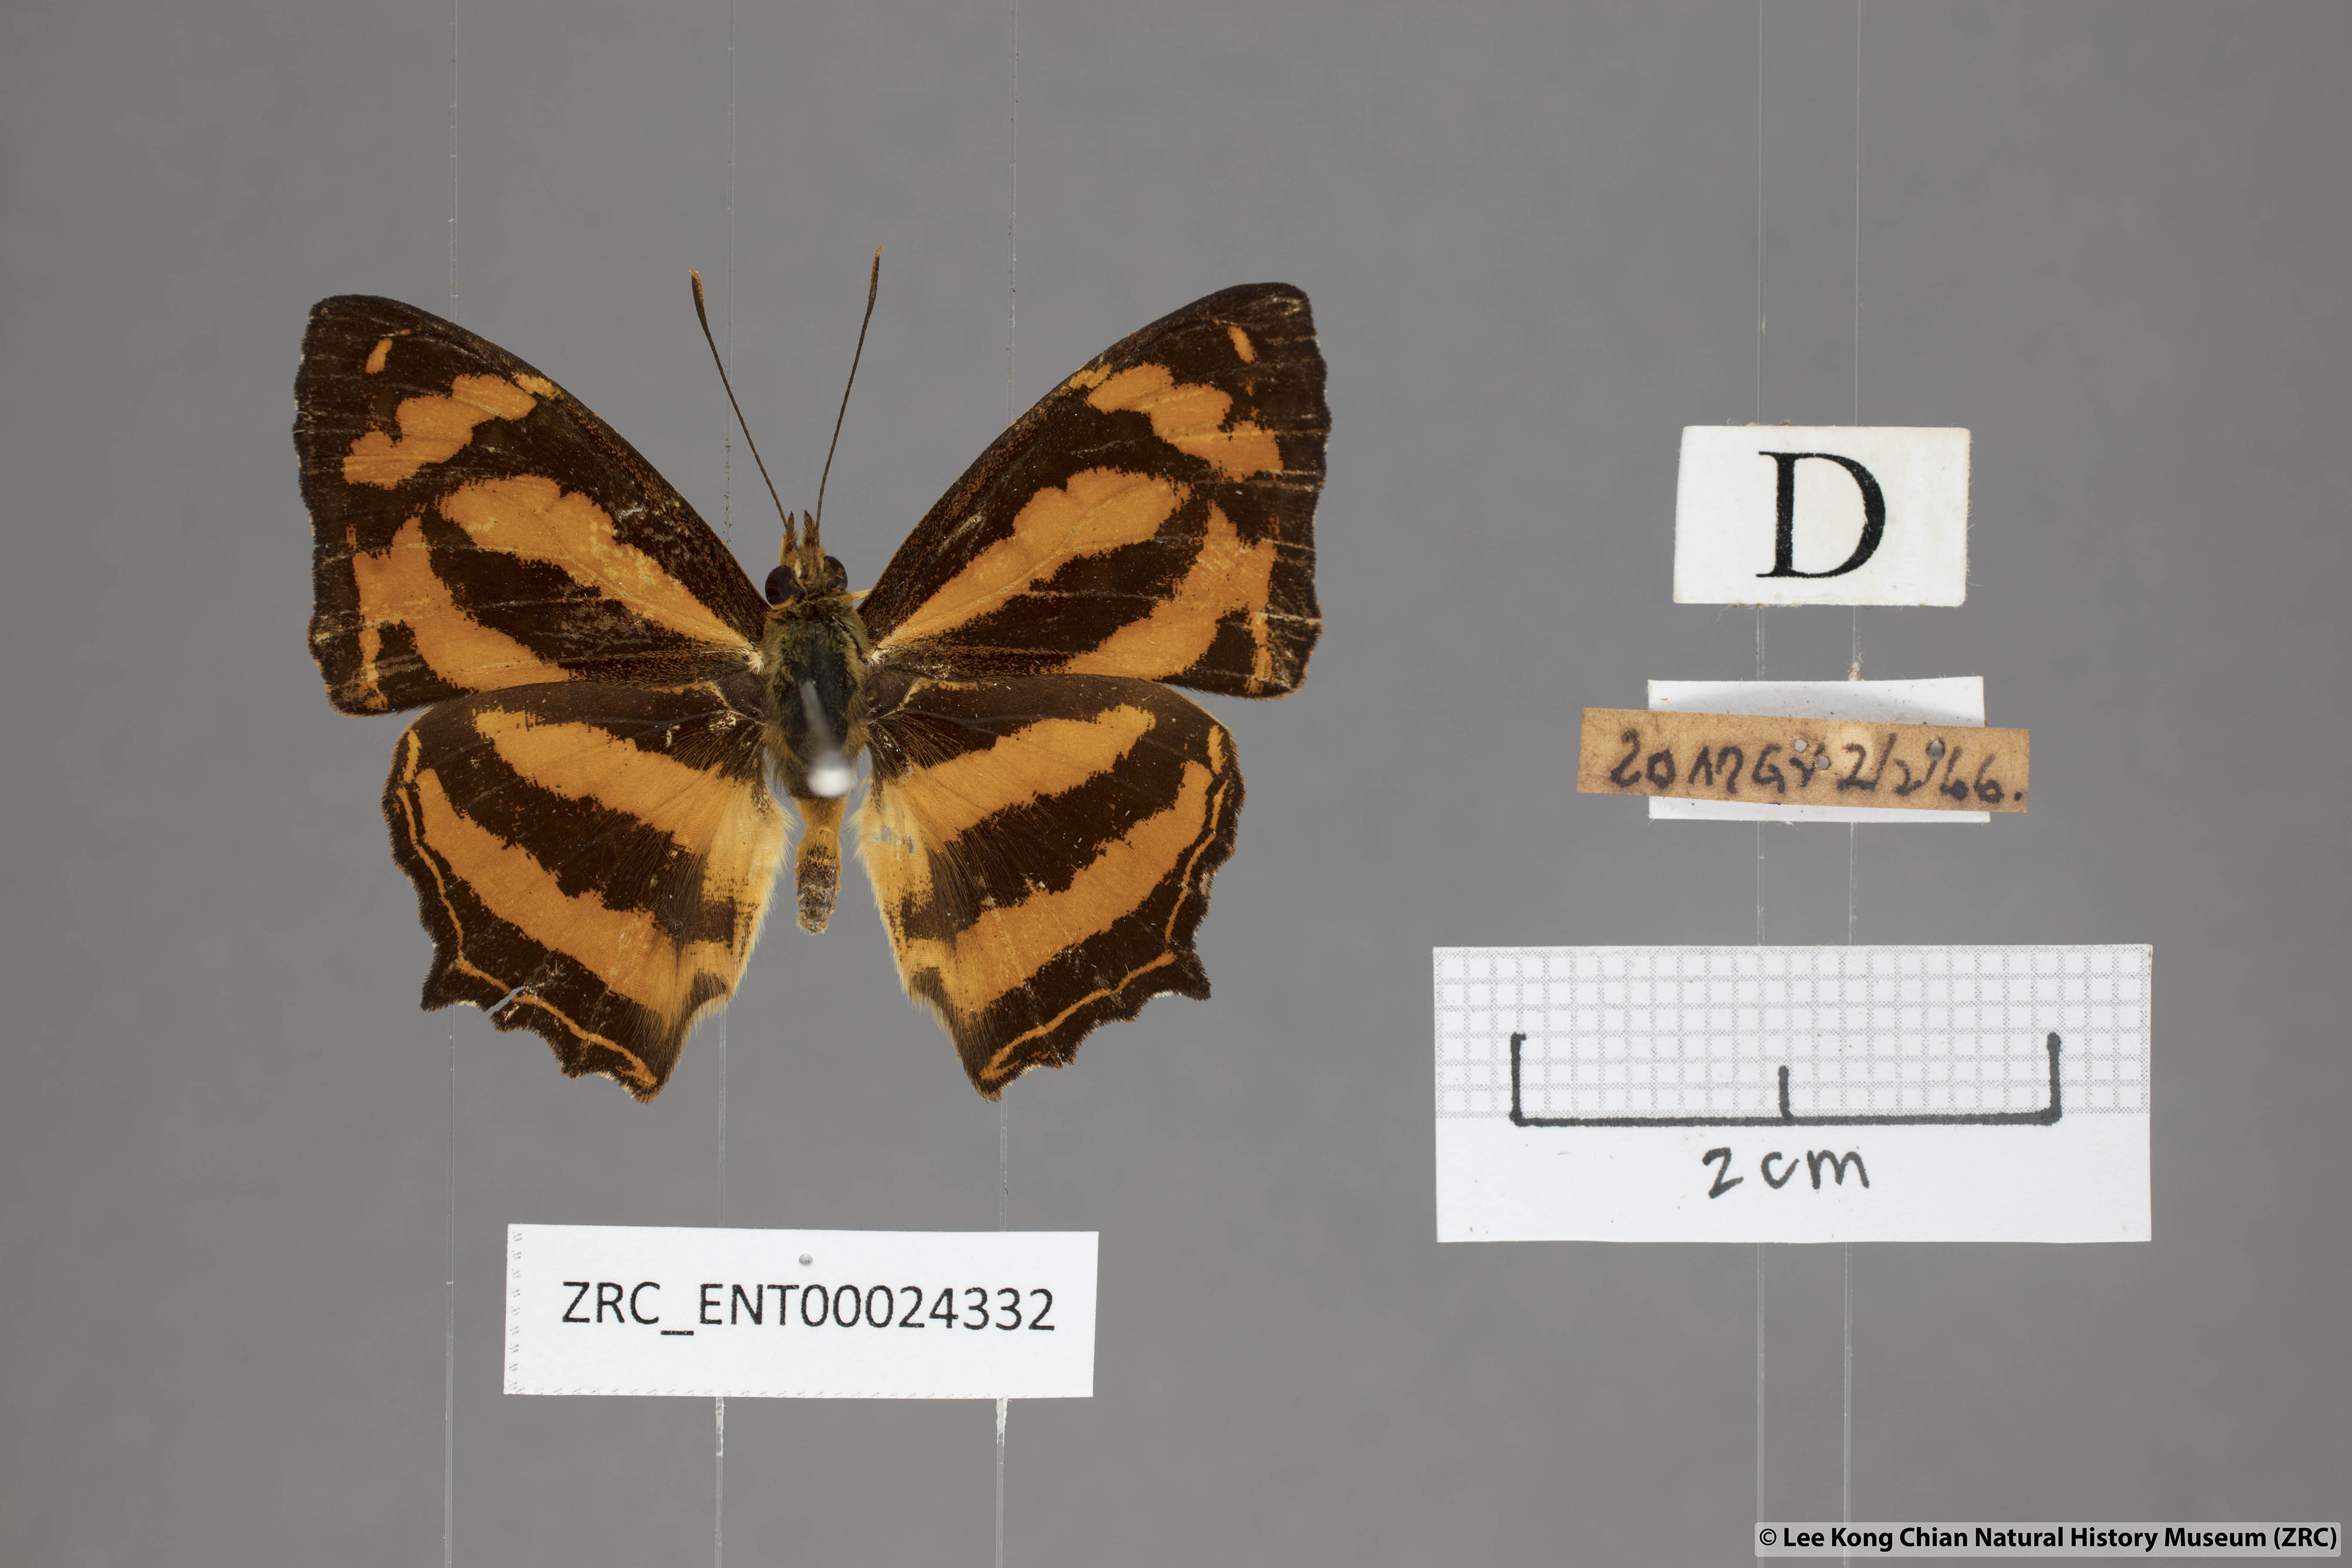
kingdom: Animalia
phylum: Arthropoda
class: Insecta
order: Lepidoptera
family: Nymphalidae
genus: Symbrenthia
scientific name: Symbrenthia hippoclus
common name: Common jester
